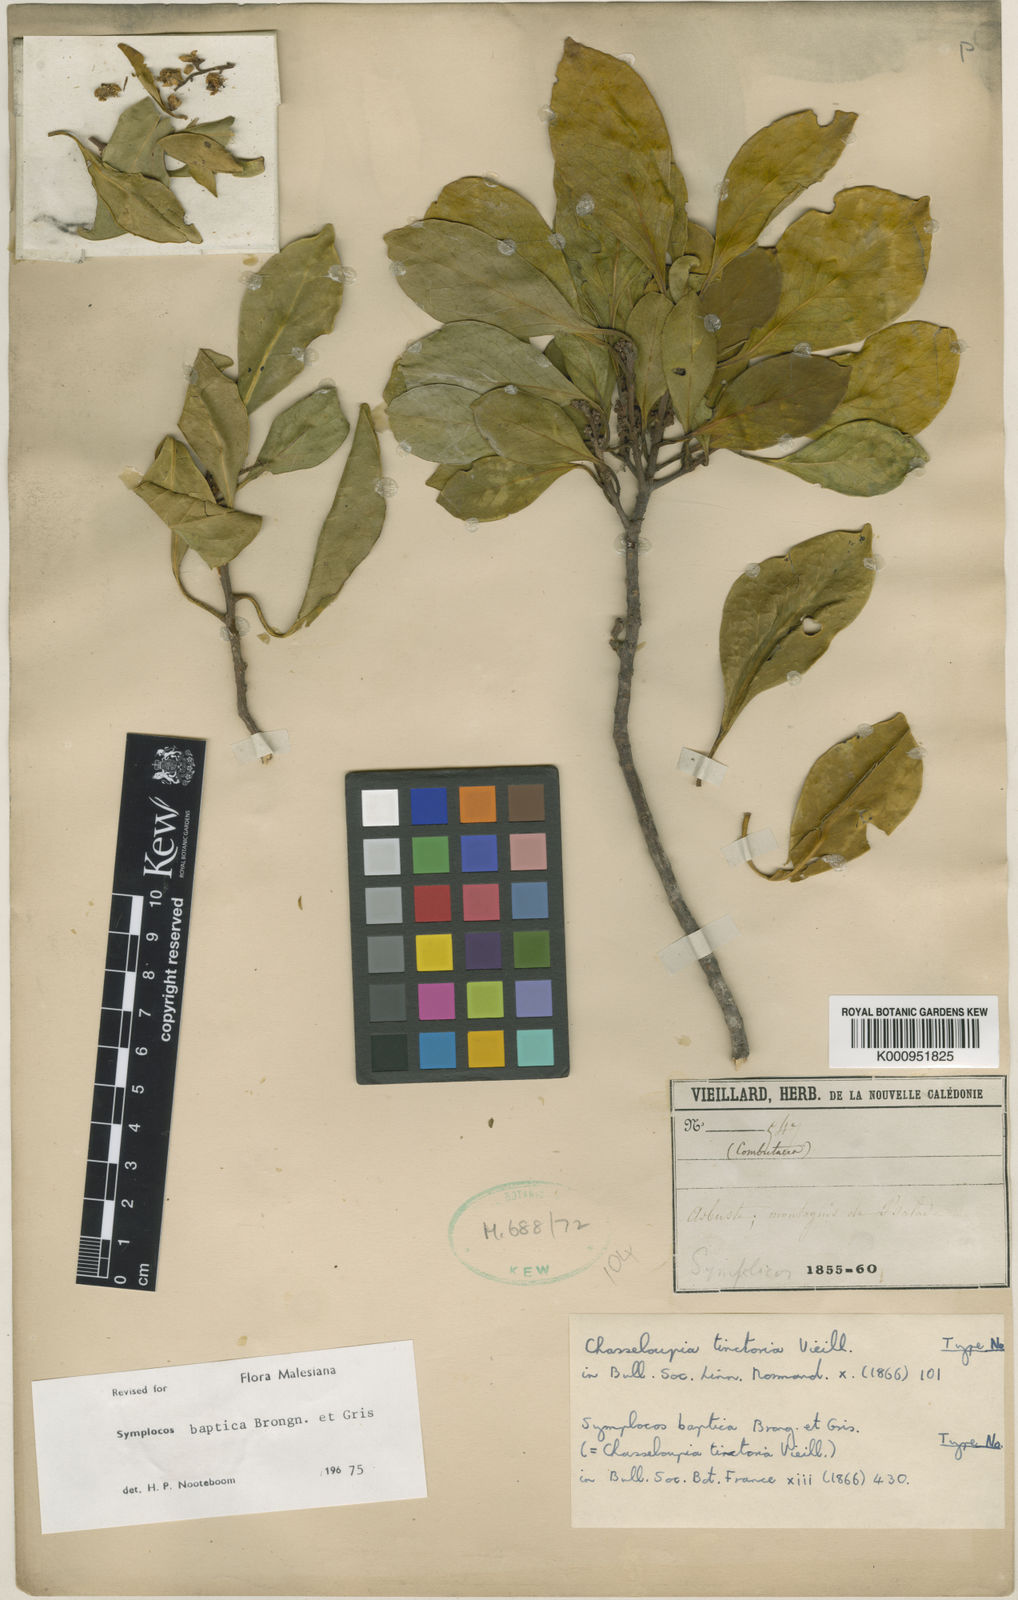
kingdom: Plantae
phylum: Tracheophyta
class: Magnoliopsida
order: Ericales
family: Symplocaceae
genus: Symplocos
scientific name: Symplocos montana
